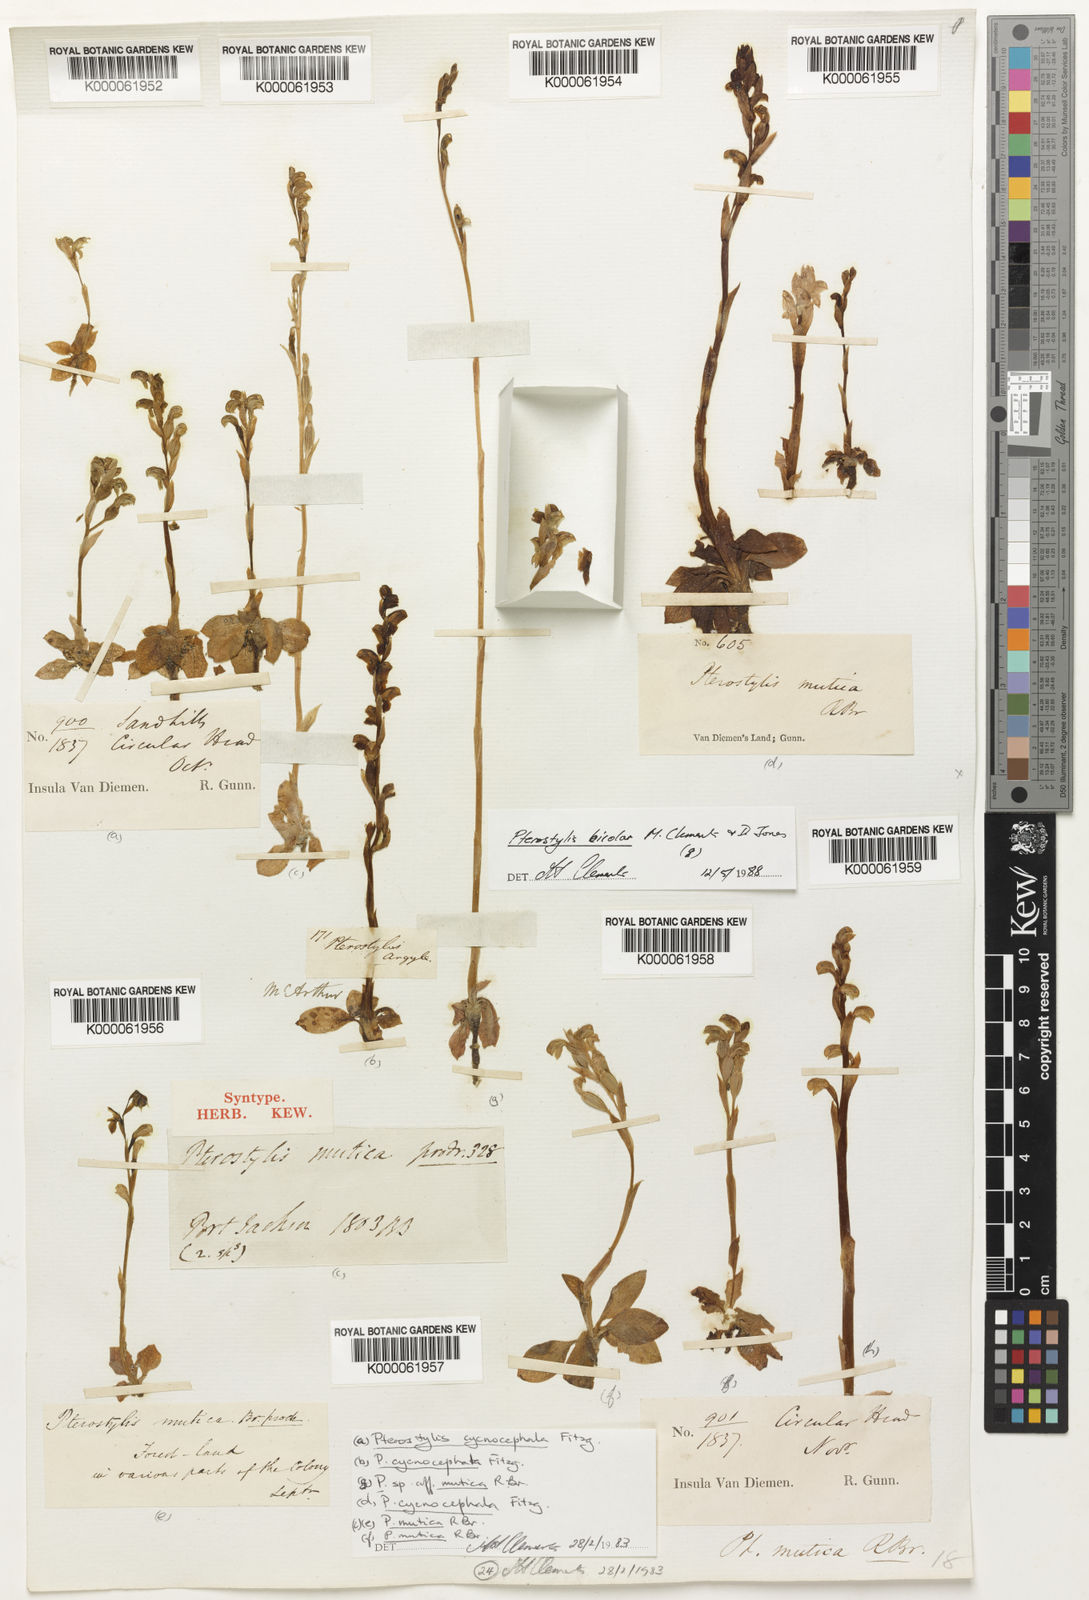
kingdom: Plantae
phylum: Tracheophyta
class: Liliopsida
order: Asparagales
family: Orchidaceae
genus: Pterostylis
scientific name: Pterostylis mutica
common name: Midget greenhood
